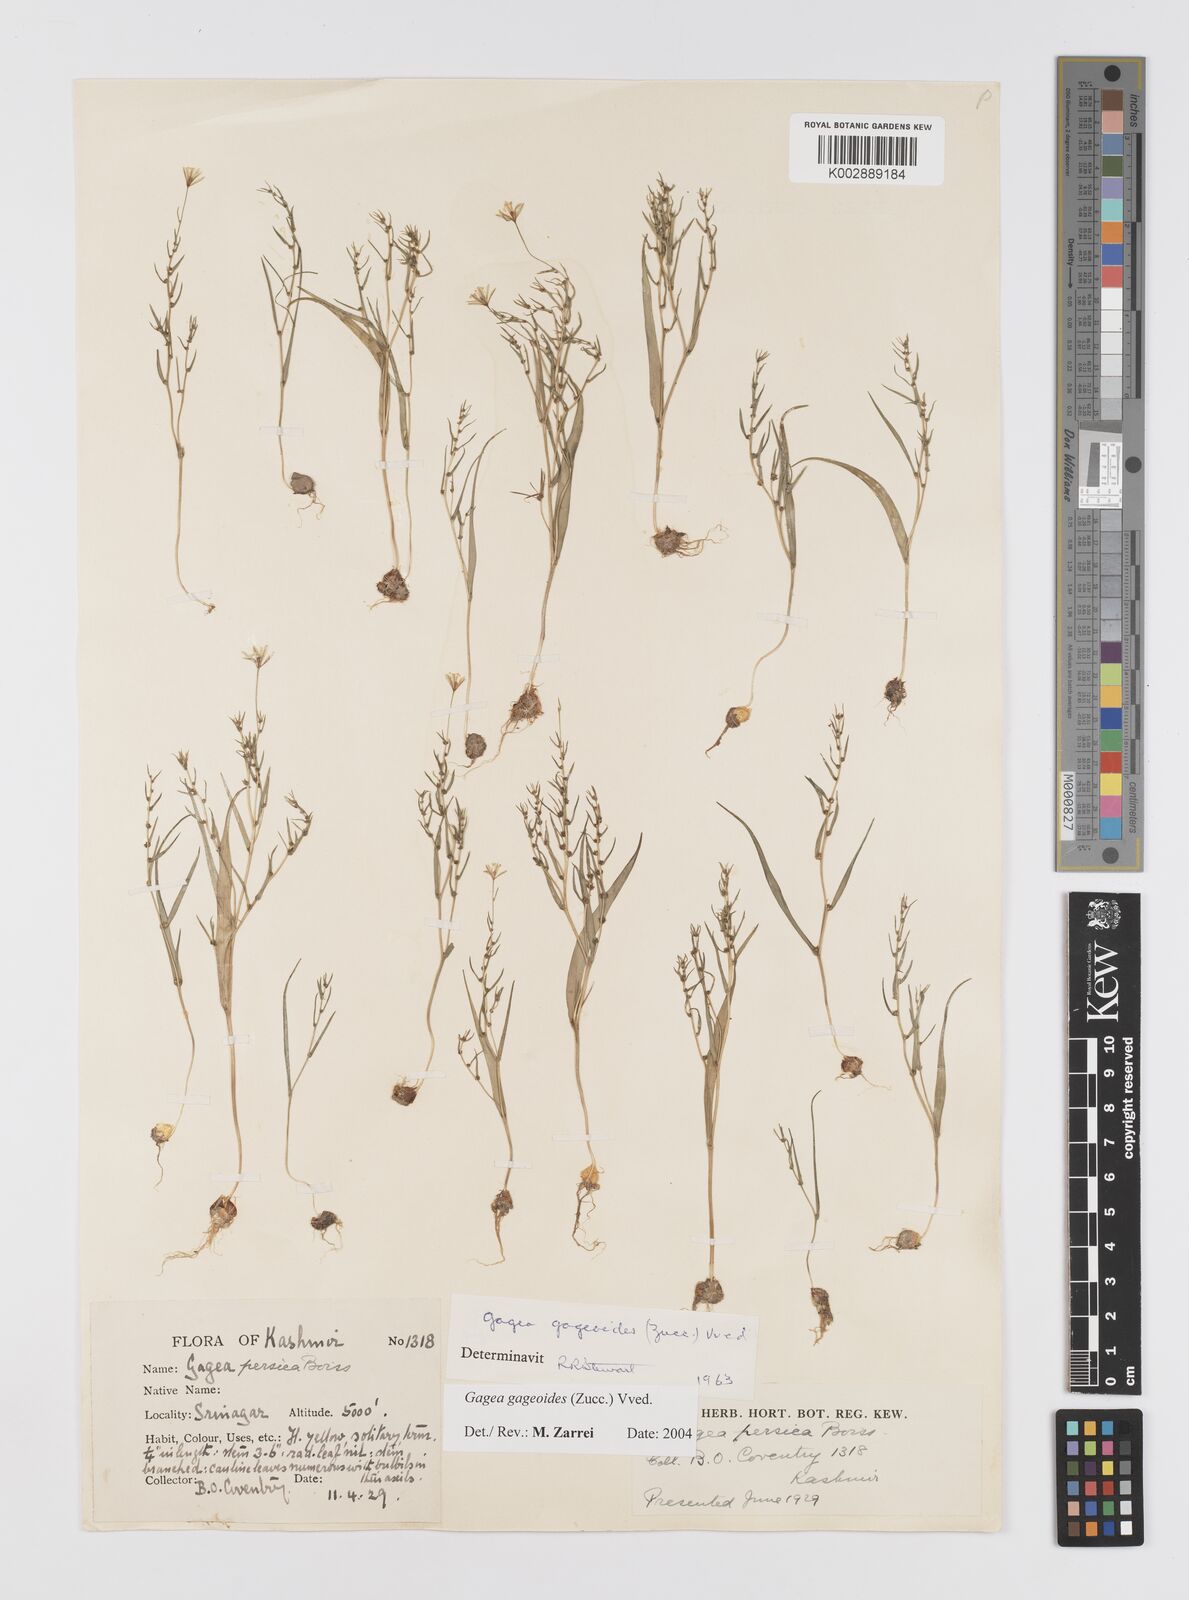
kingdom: Plantae
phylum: Tracheophyta
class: Liliopsida
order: Liliales
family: Liliaceae
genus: Gagea
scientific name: Gagea dschungarica
